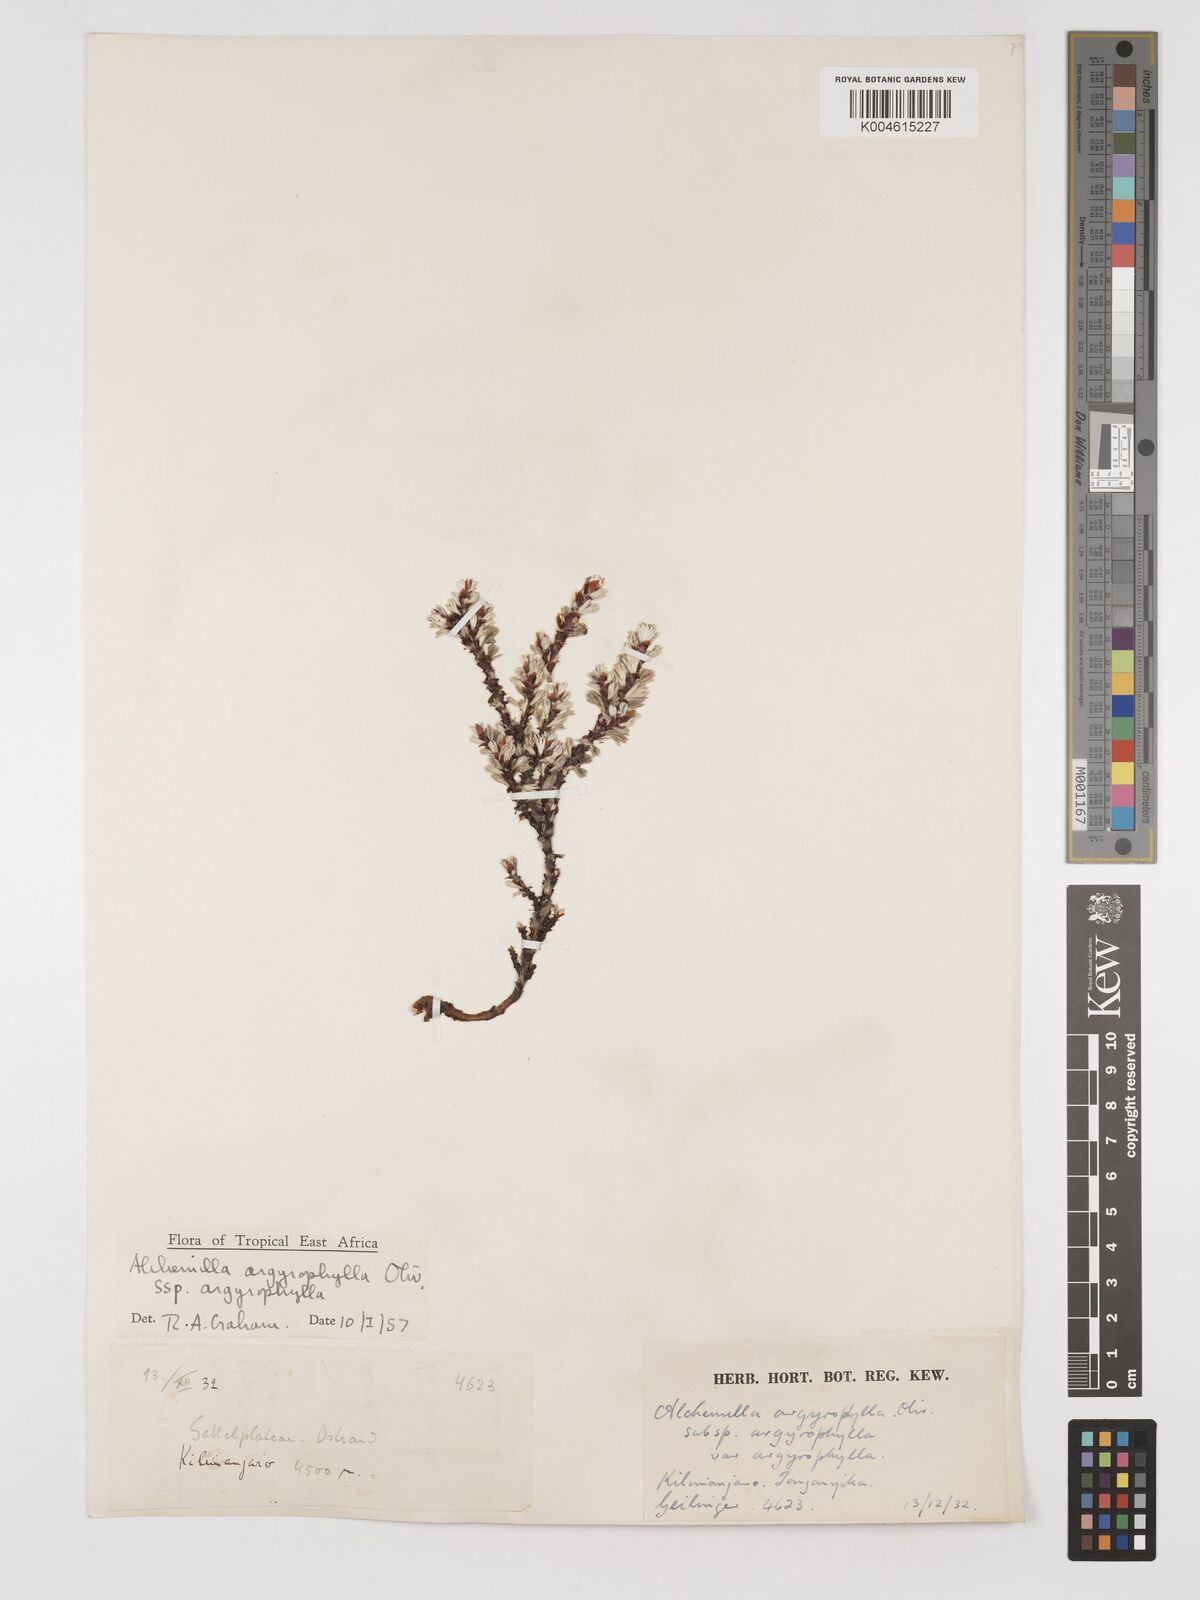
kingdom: Plantae
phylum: Tracheophyta
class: Magnoliopsida
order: Rosales
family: Rosaceae
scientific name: Rosaceae
